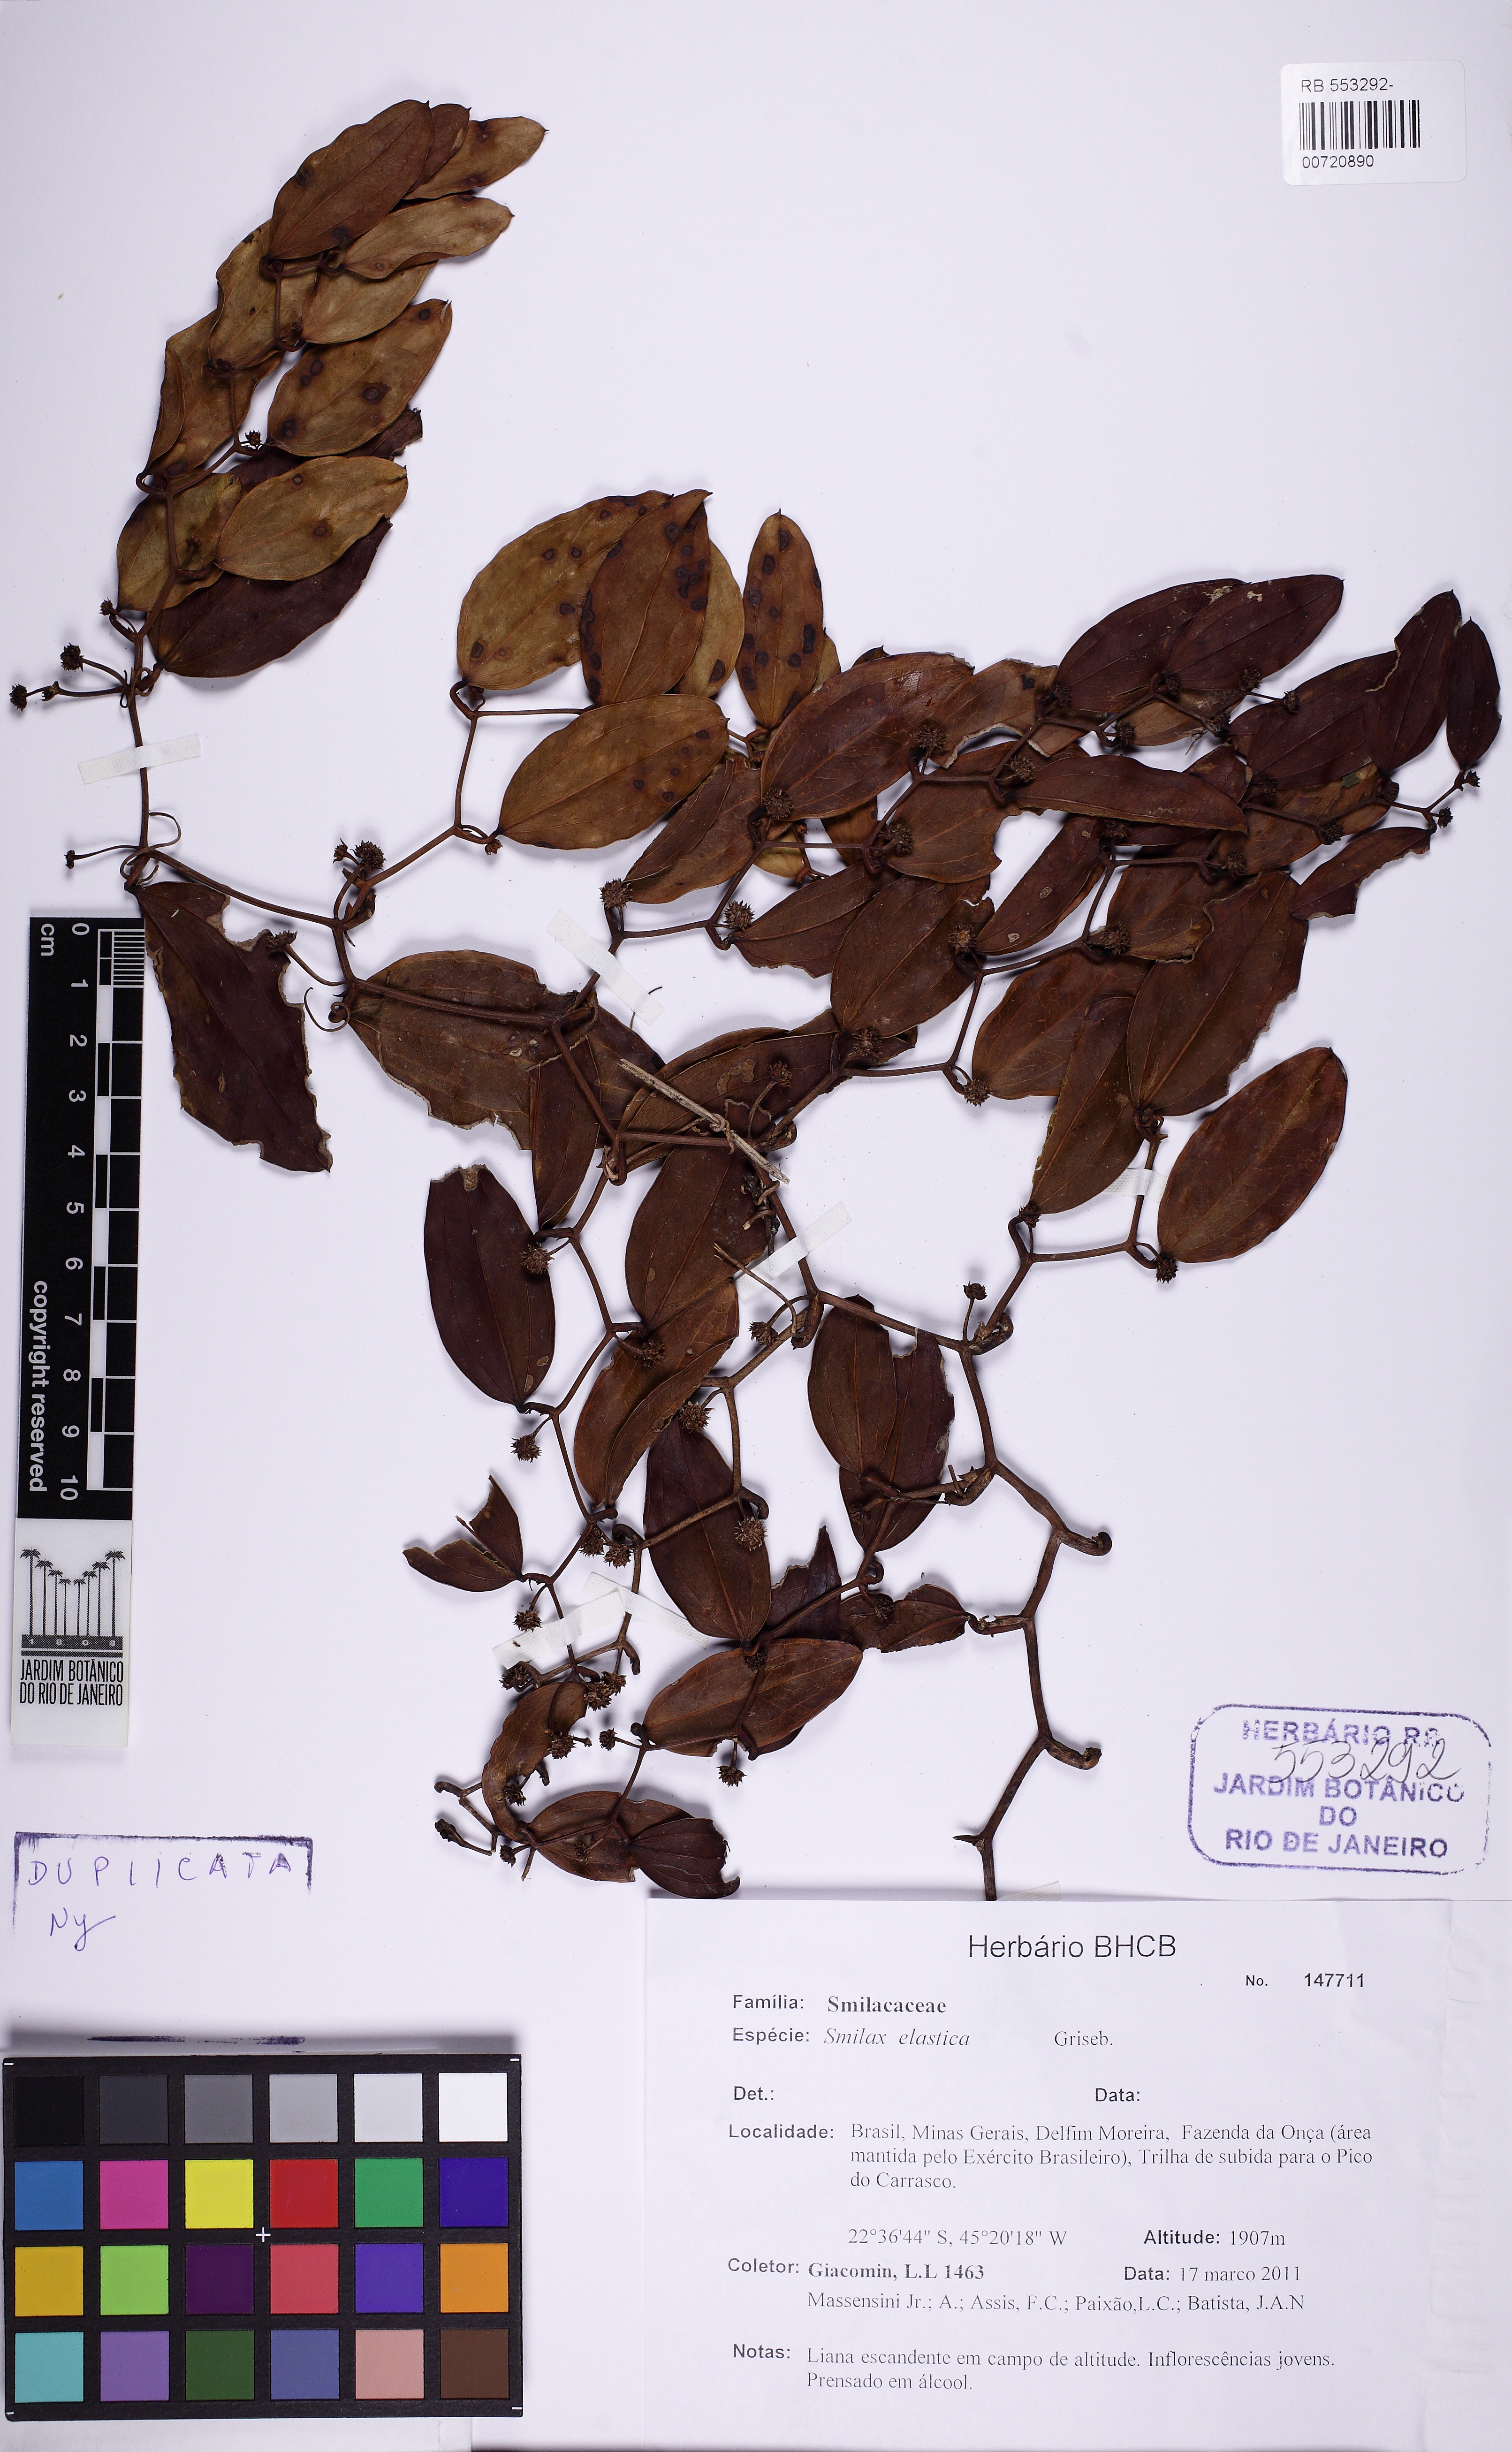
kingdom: Plantae
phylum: Tracheophyta
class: Liliopsida
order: Liliales
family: Smilacaceae
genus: Smilax
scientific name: Smilax elastica
